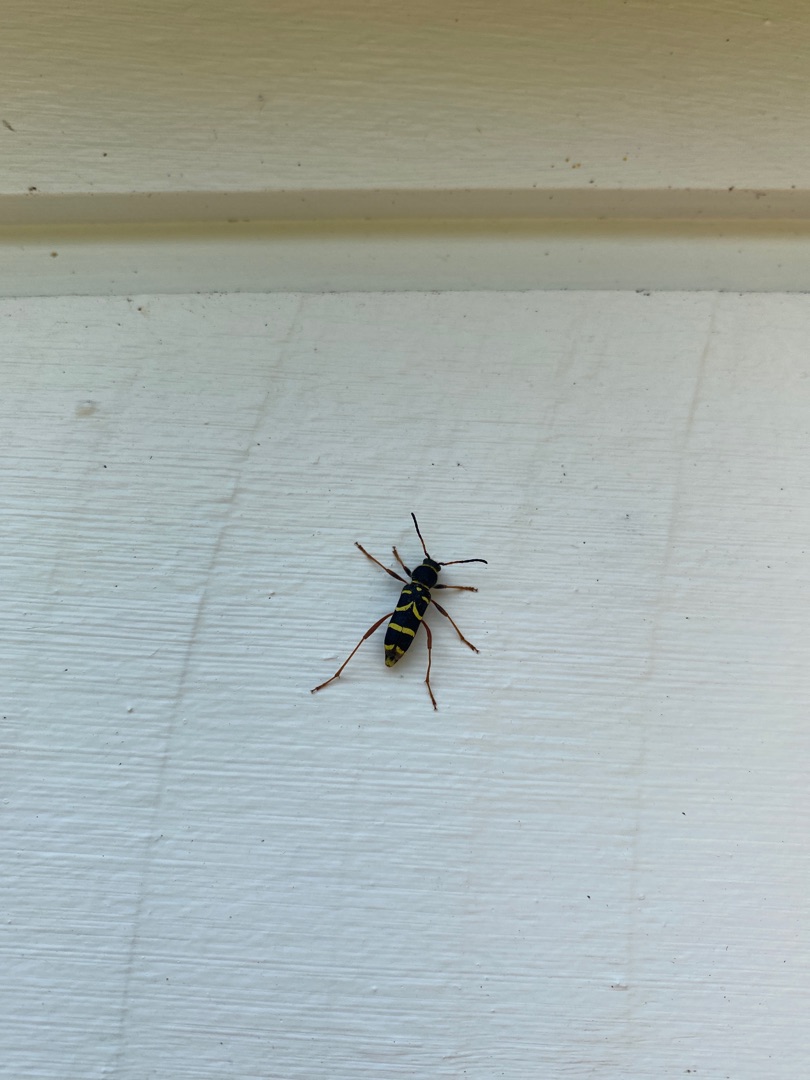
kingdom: Animalia
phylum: Arthropoda
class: Insecta
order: Coleoptera
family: Cerambycidae
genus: Clytus
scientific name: Clytus arietis
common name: Lille hvepsebuk
